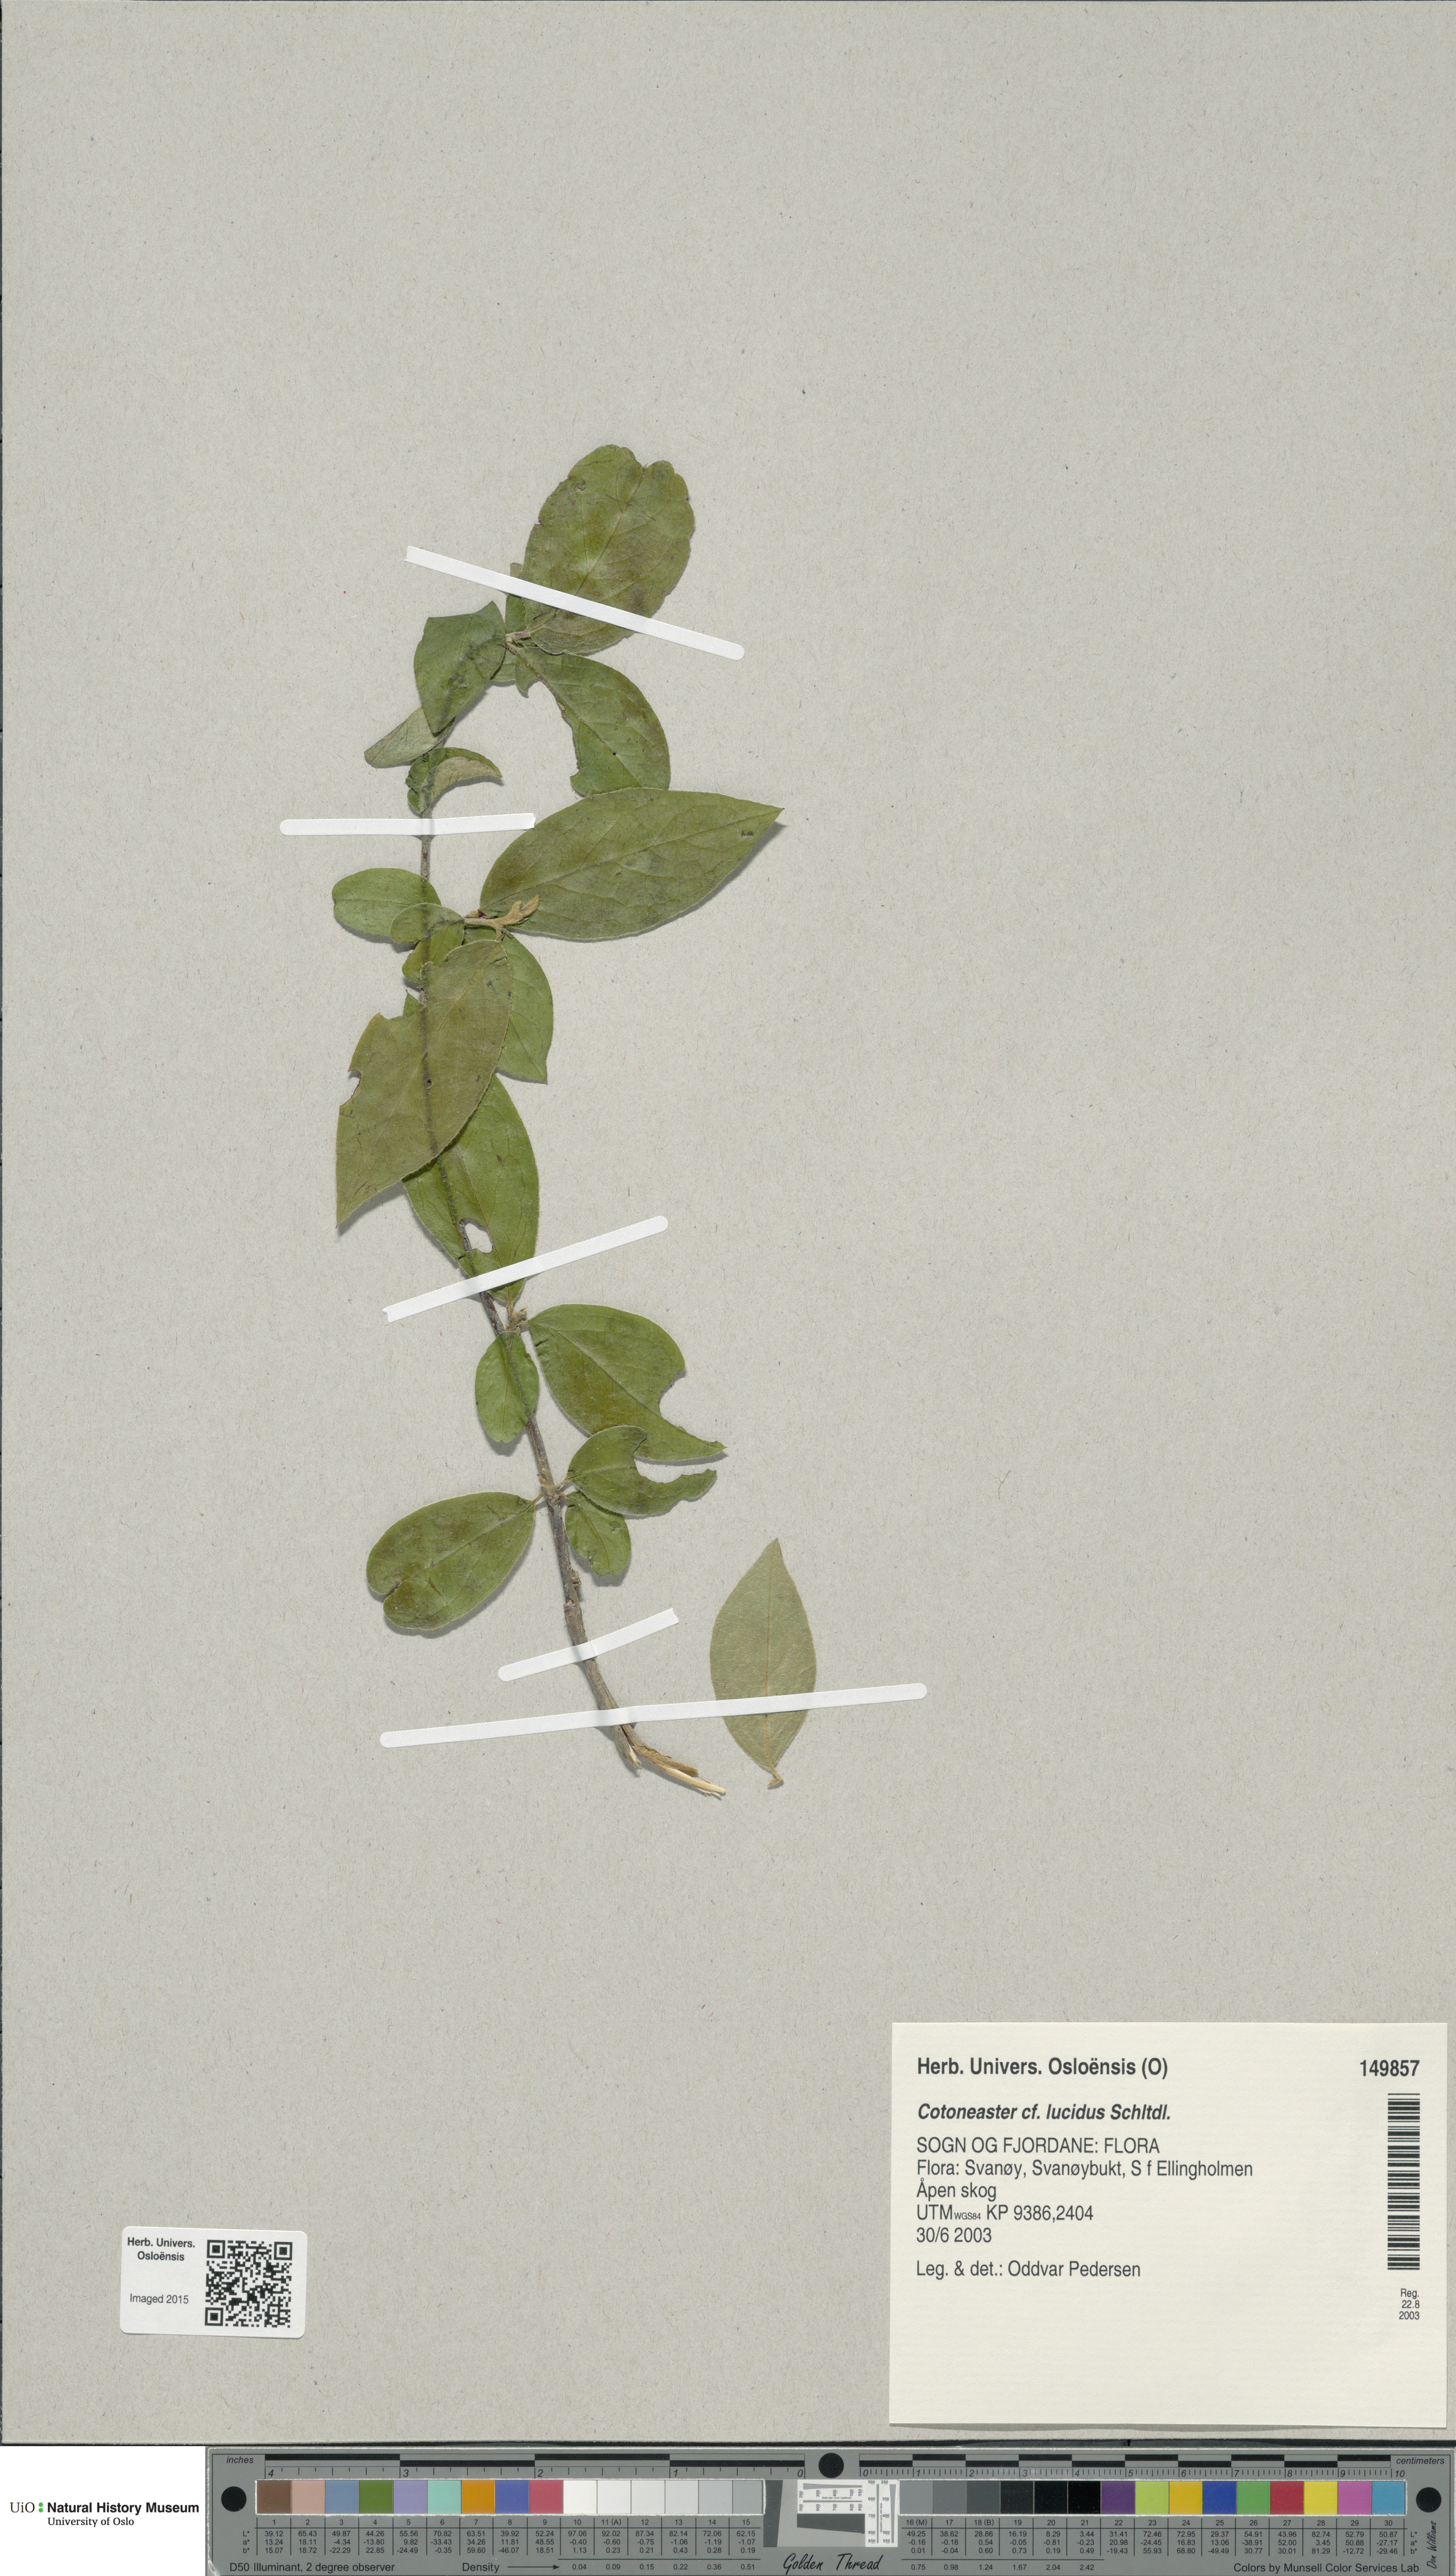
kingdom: Plantae
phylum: Tracheophyta
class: Magnoliopsida
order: Rosales
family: Rosaceae
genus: Cotoneaster
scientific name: Cotoneaster acutifolius
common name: Peking cotoneaster
